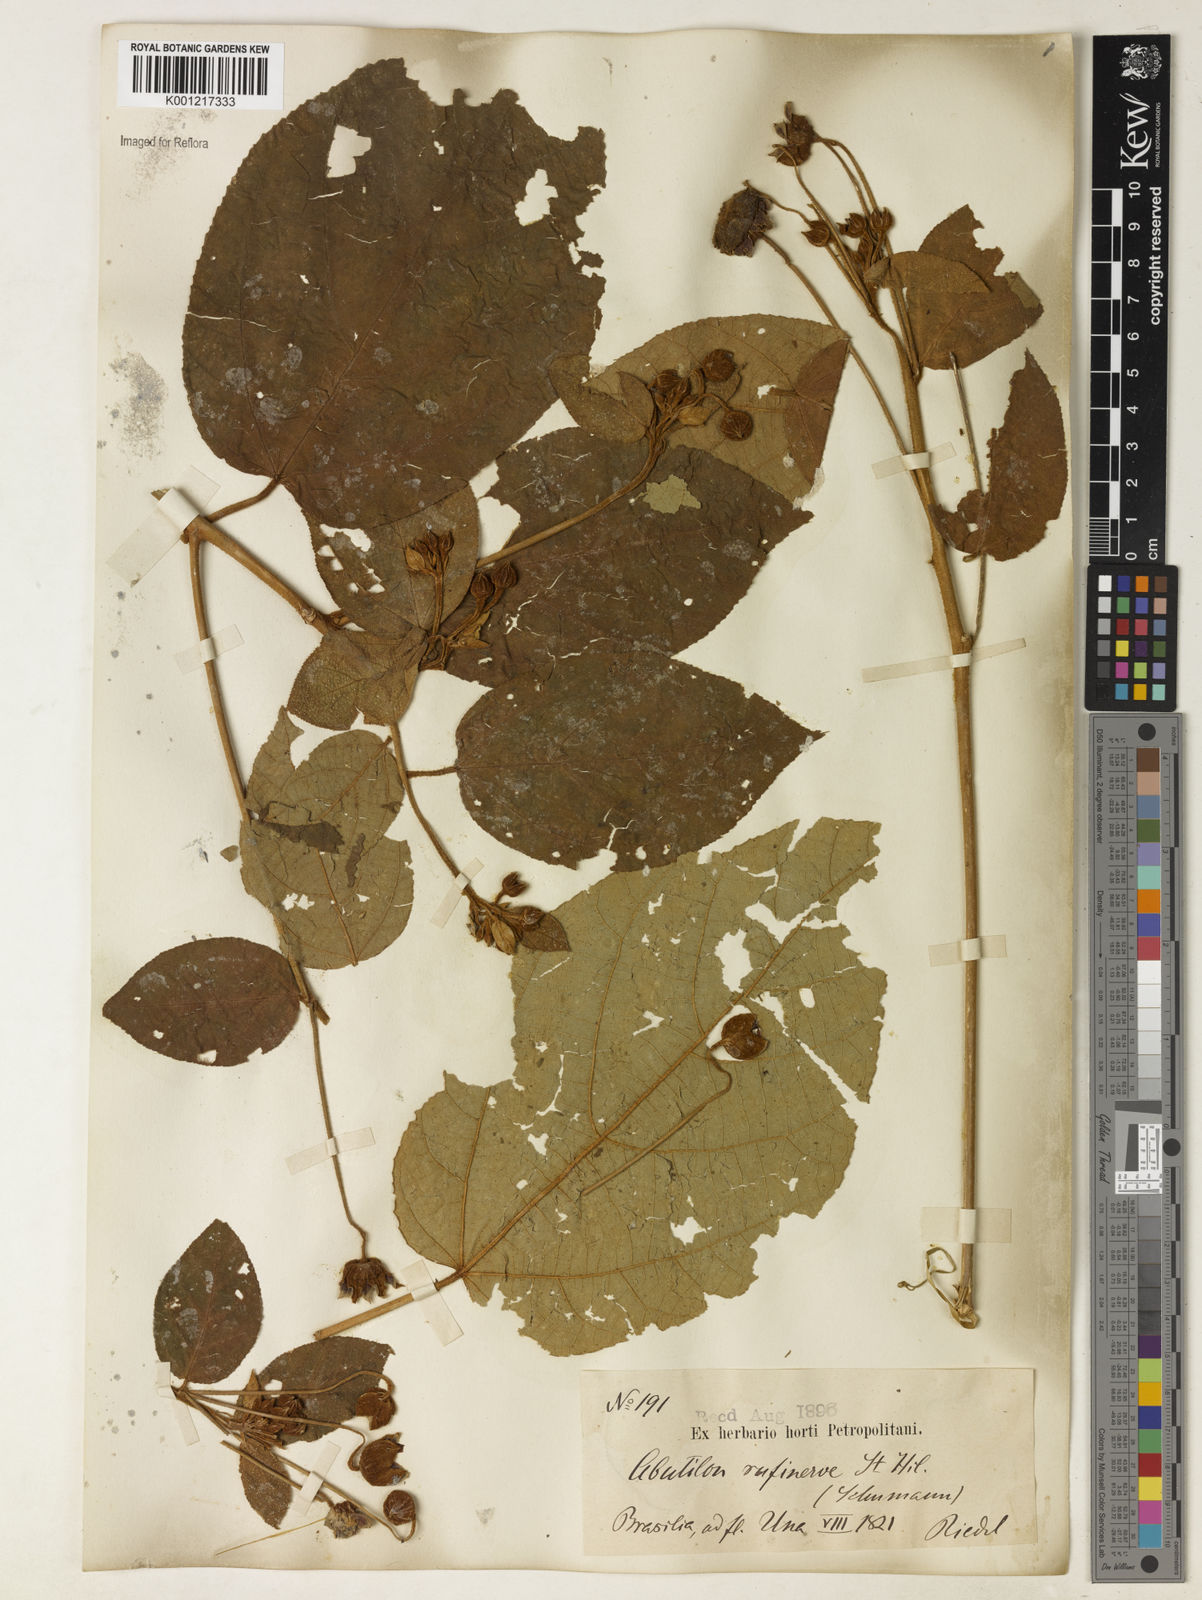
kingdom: Plantae
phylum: Tracheophyta
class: Magnoliopsida
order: Malvales
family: Malvaceae
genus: Callianthe
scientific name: Callianthe rufinerva
